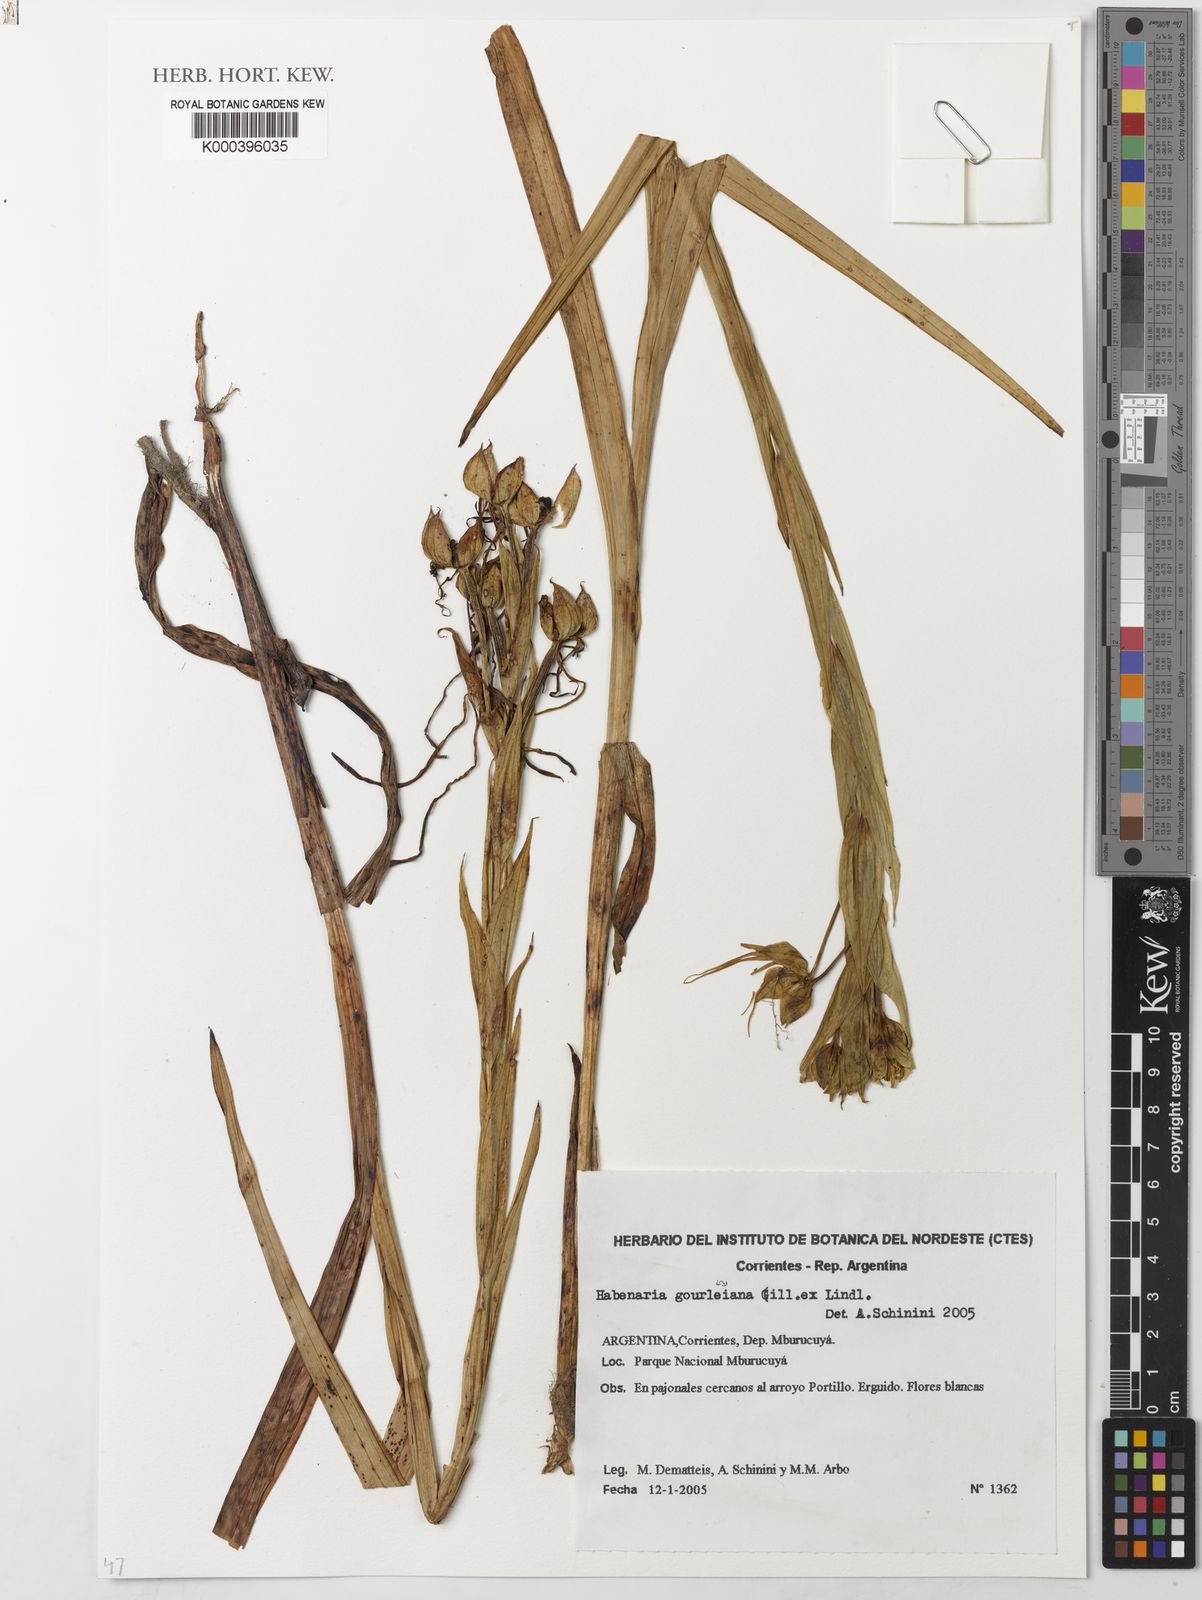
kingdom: Plantae
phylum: Tracheophyta
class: Liliopsida
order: Asparagales
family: Orchidaceae
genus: Habenaria
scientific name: Habenaria gourlieana
